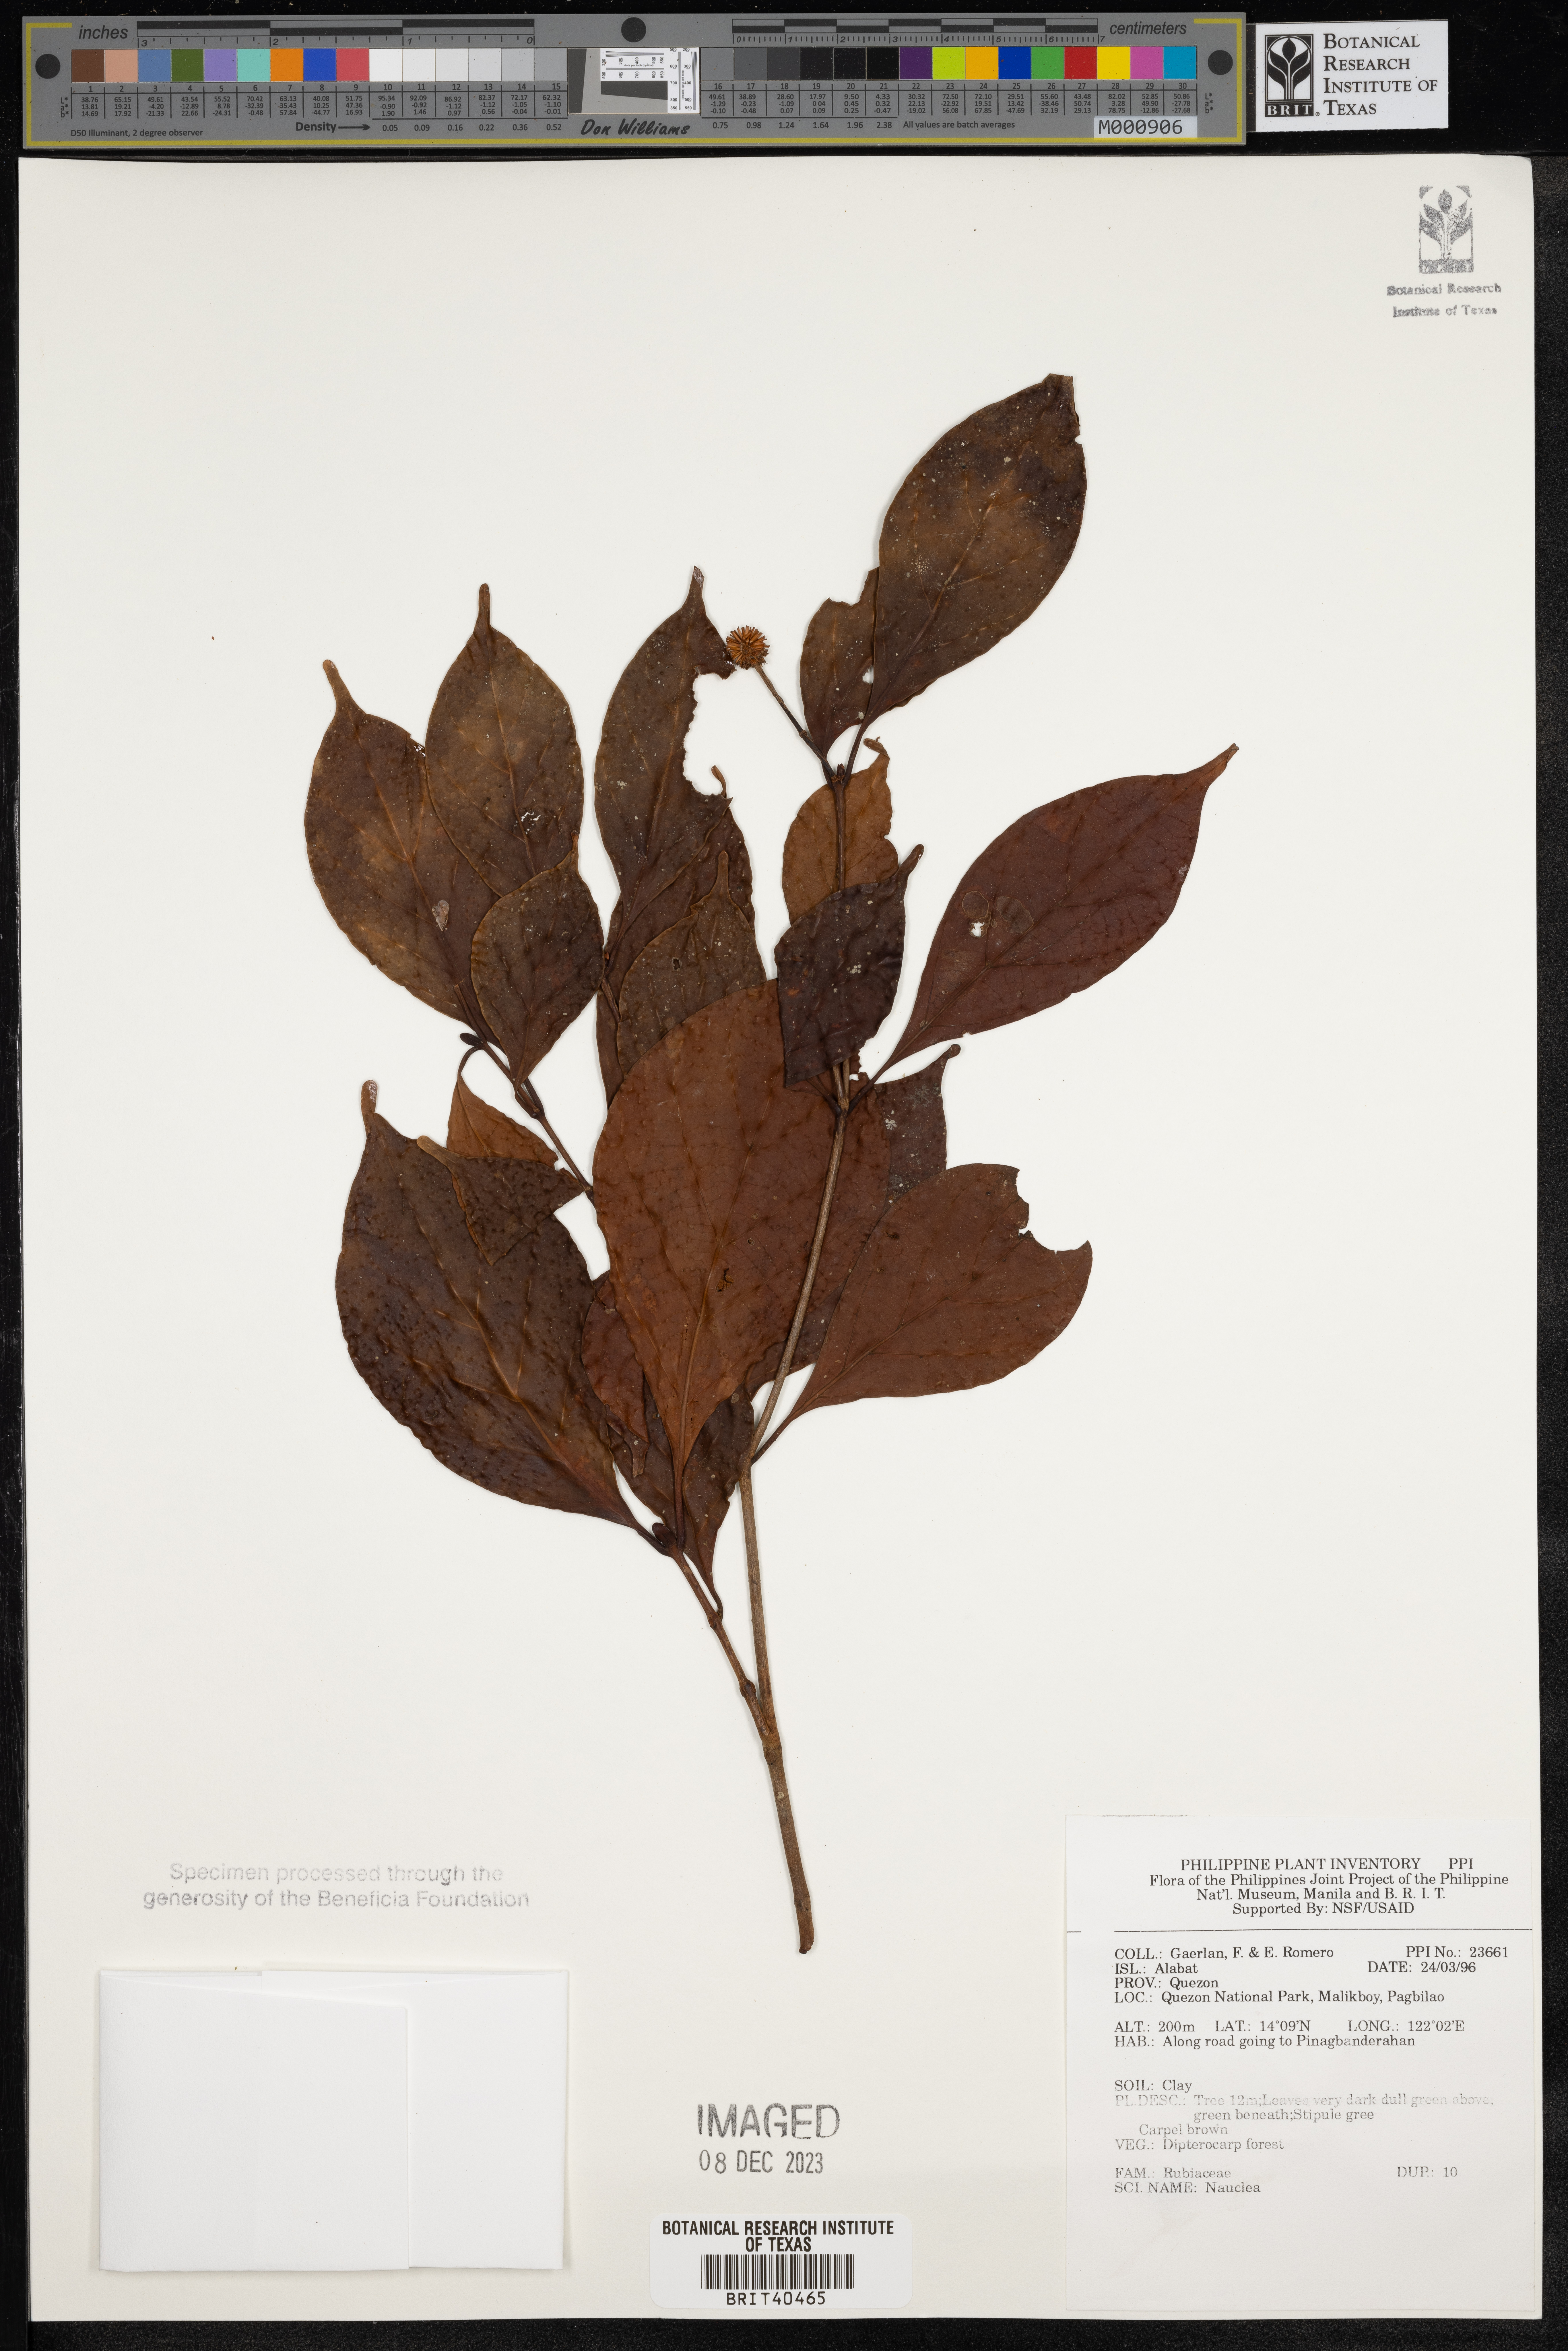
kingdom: Plantae
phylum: Tracheophyta
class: Magnoliopsida
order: Gentianales
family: Rubiaceae
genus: Nauclea
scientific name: Nauclea
